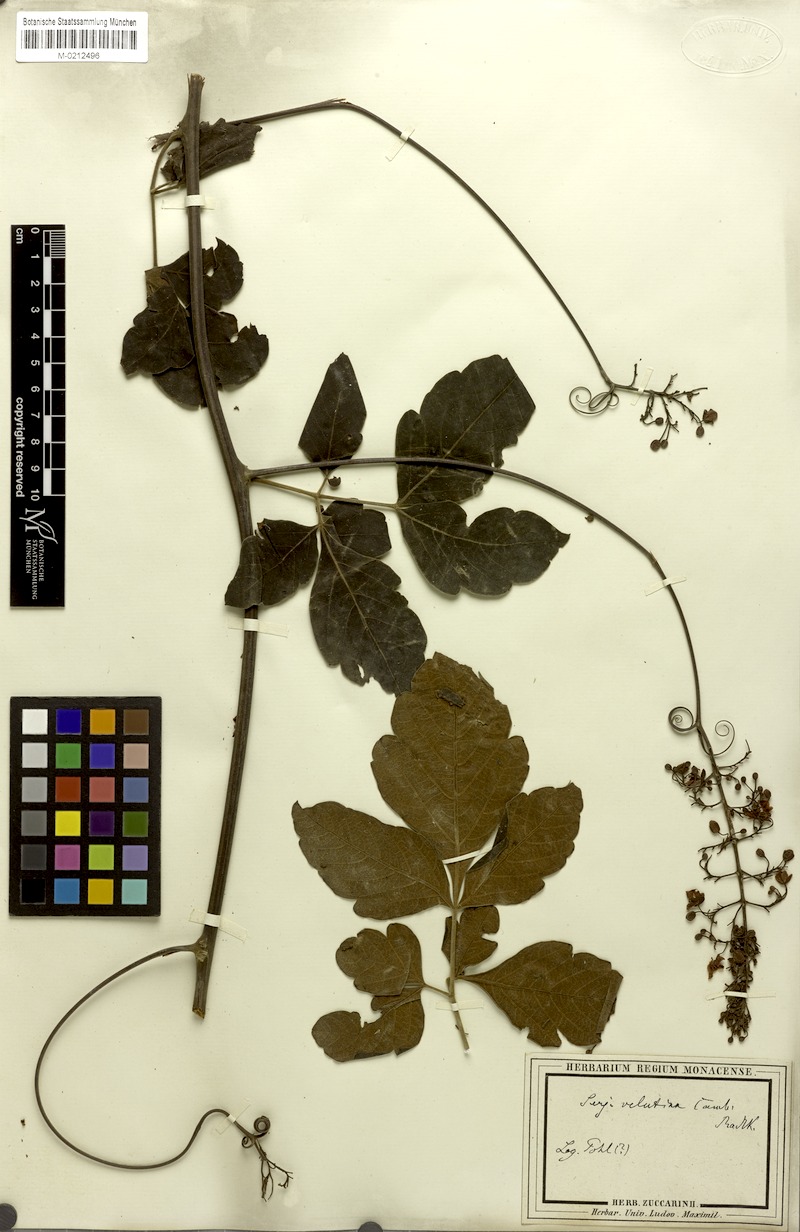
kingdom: Plantae
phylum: Tracheophyta
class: Magnoliopsida
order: Sapindales
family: Sapindaceae
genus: Serjania
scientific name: Serjania velutina
